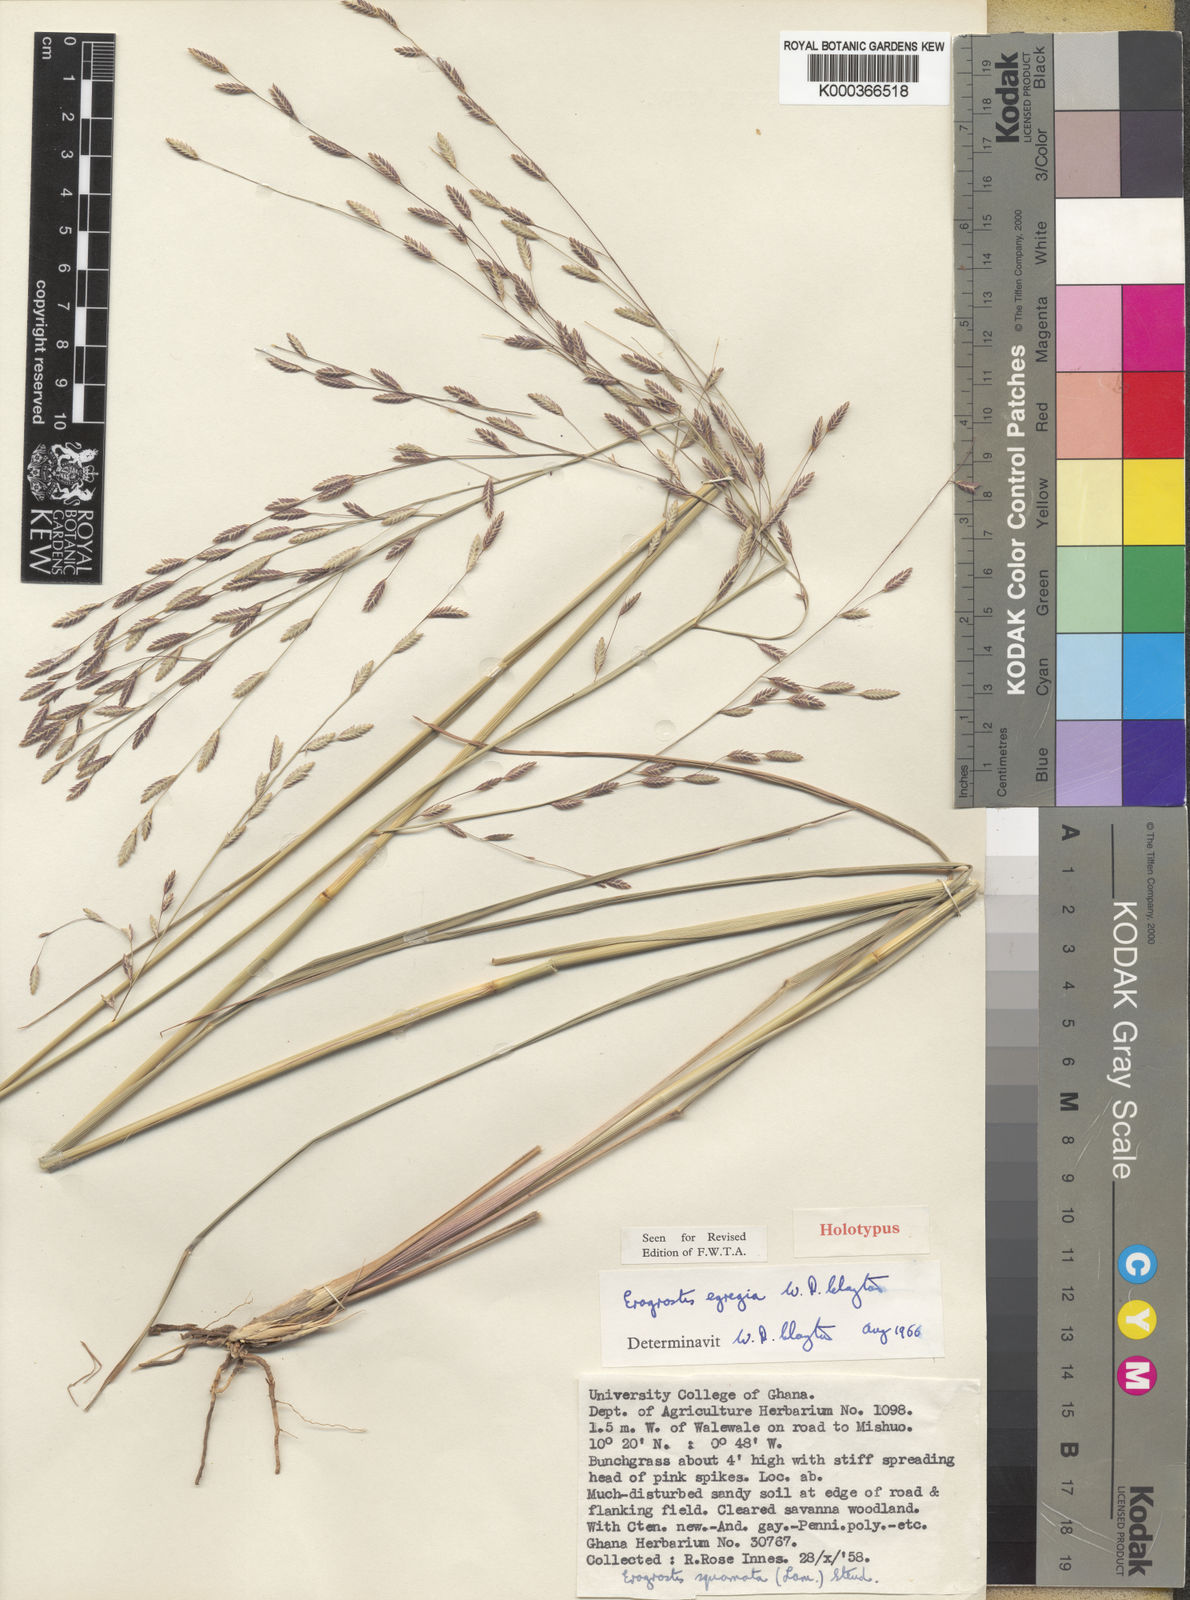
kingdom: Plantae
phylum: Tracheophyta
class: Liliopsida
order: Poales
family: Poaceae
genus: Eragrostis
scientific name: Eragrostis egregia
